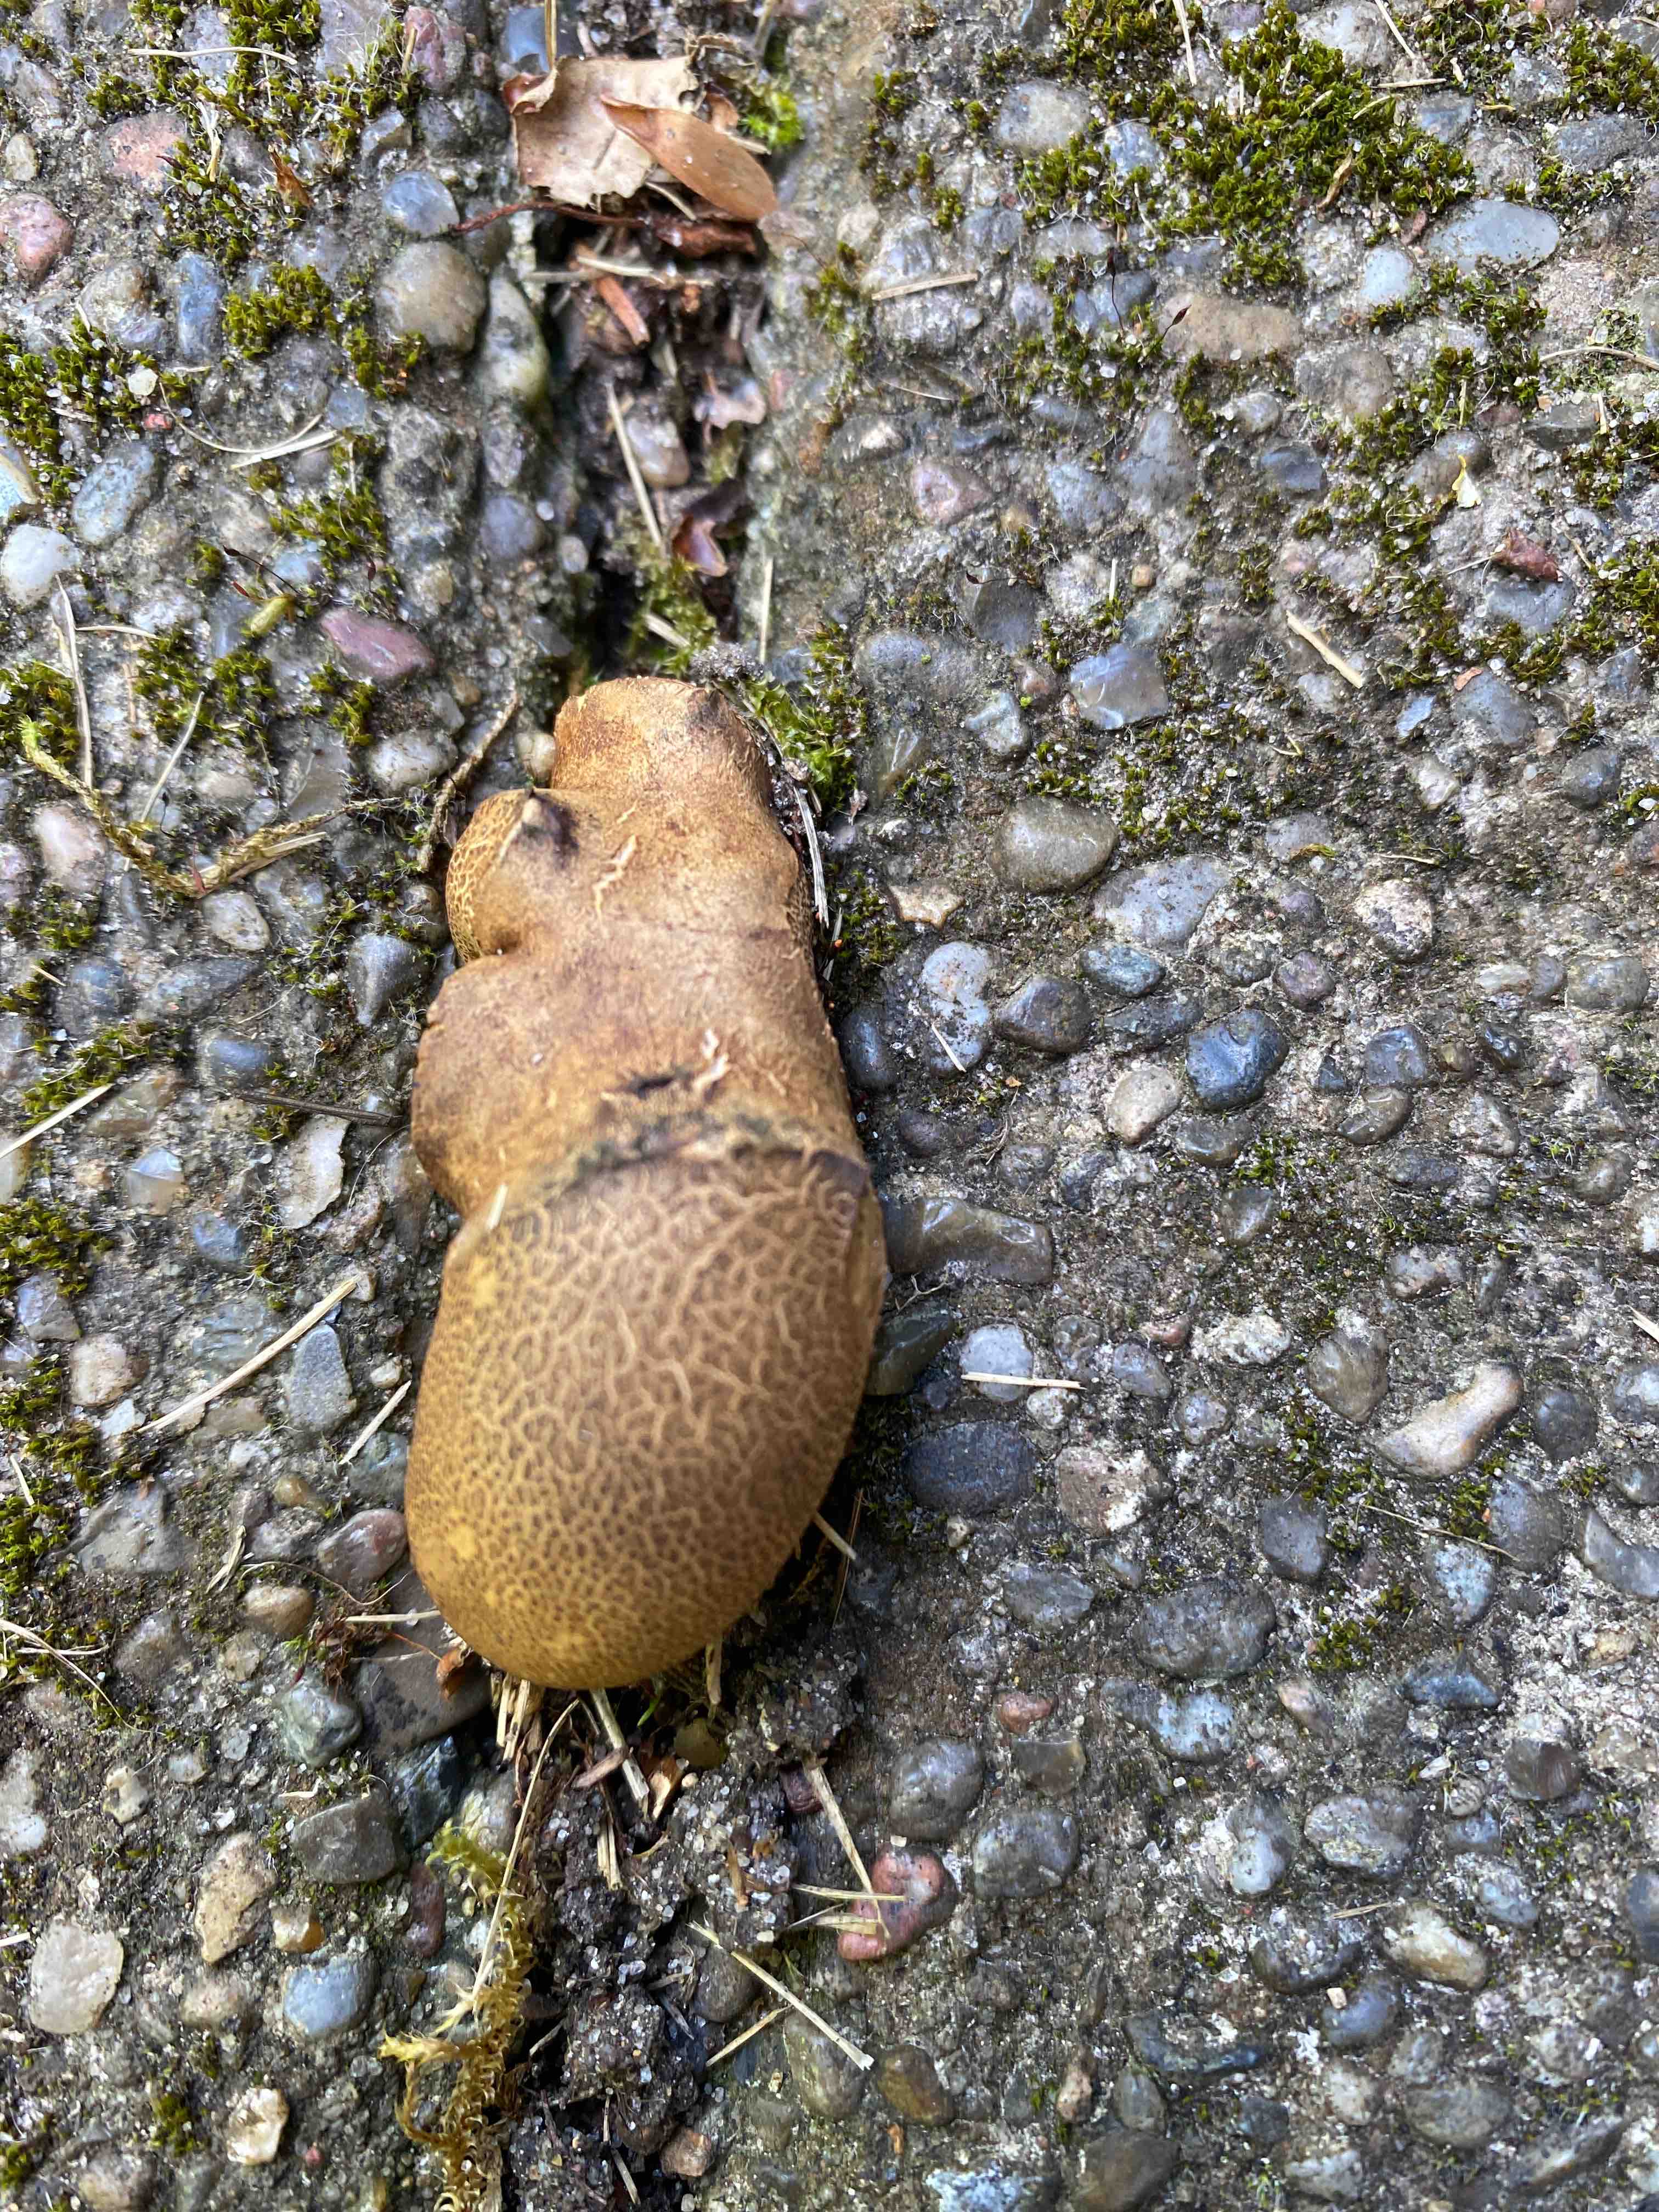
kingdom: Fungi
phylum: Basidiomycota
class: Agaricomycetes
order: Boletales
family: Sclerodermataceae
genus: Scleroderma
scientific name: Scleroderma
